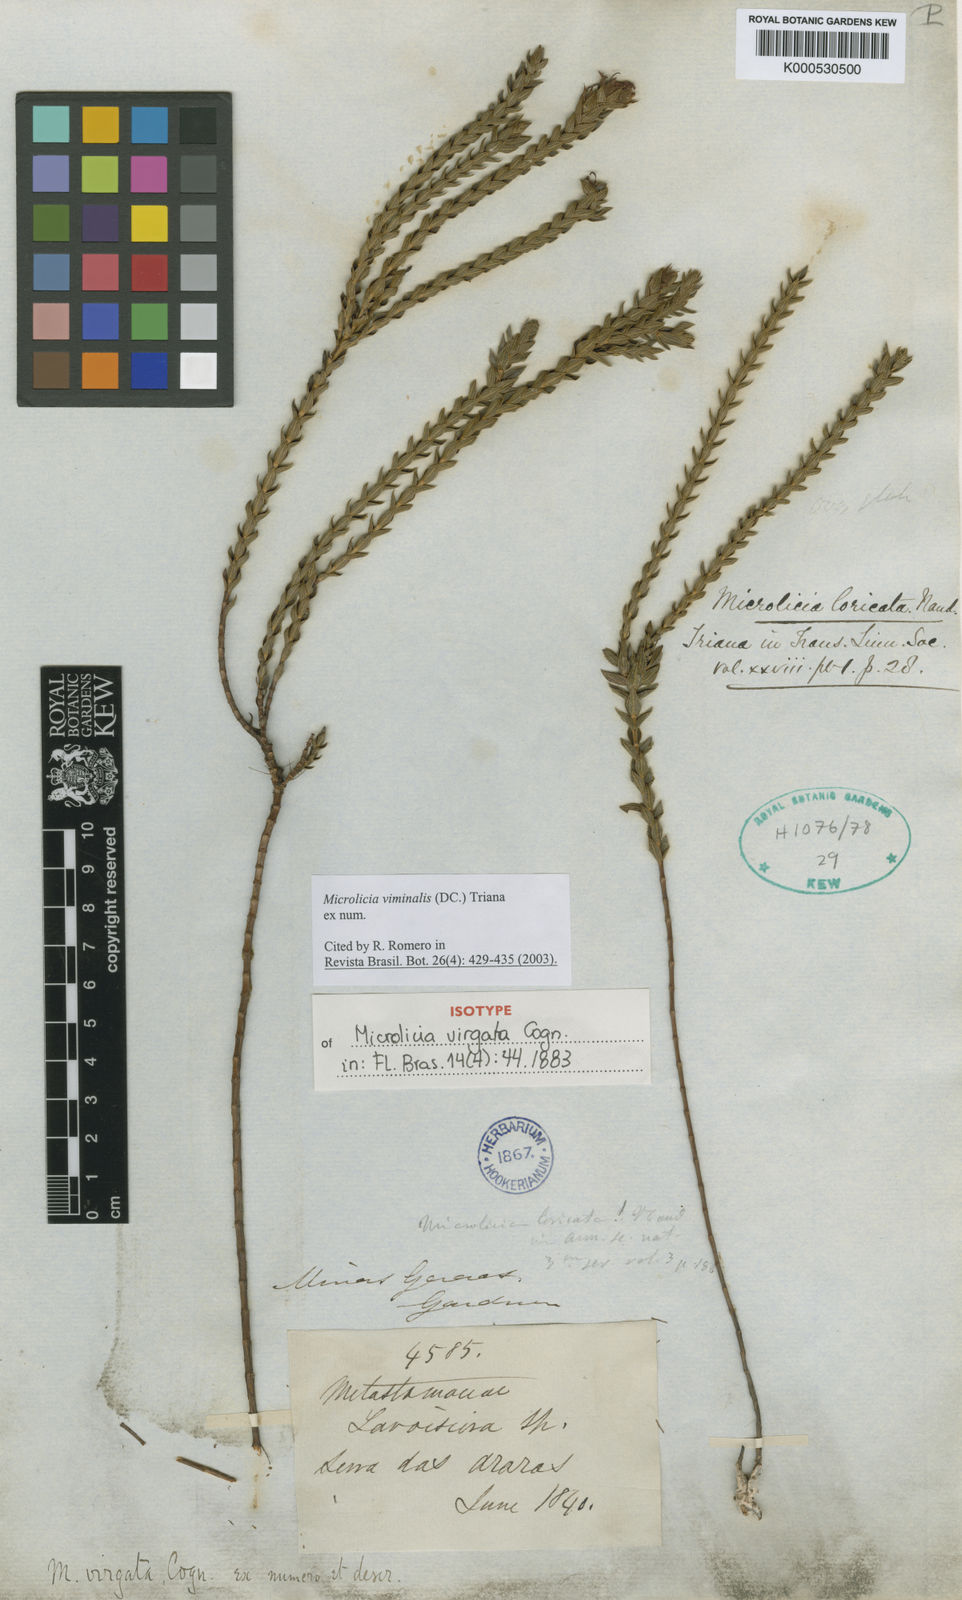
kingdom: Plantae
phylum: Tracheophyta
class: Magnoliopsida
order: Myrtales
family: Melastomataceae
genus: Microlicia
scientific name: Microlicia viminalis
